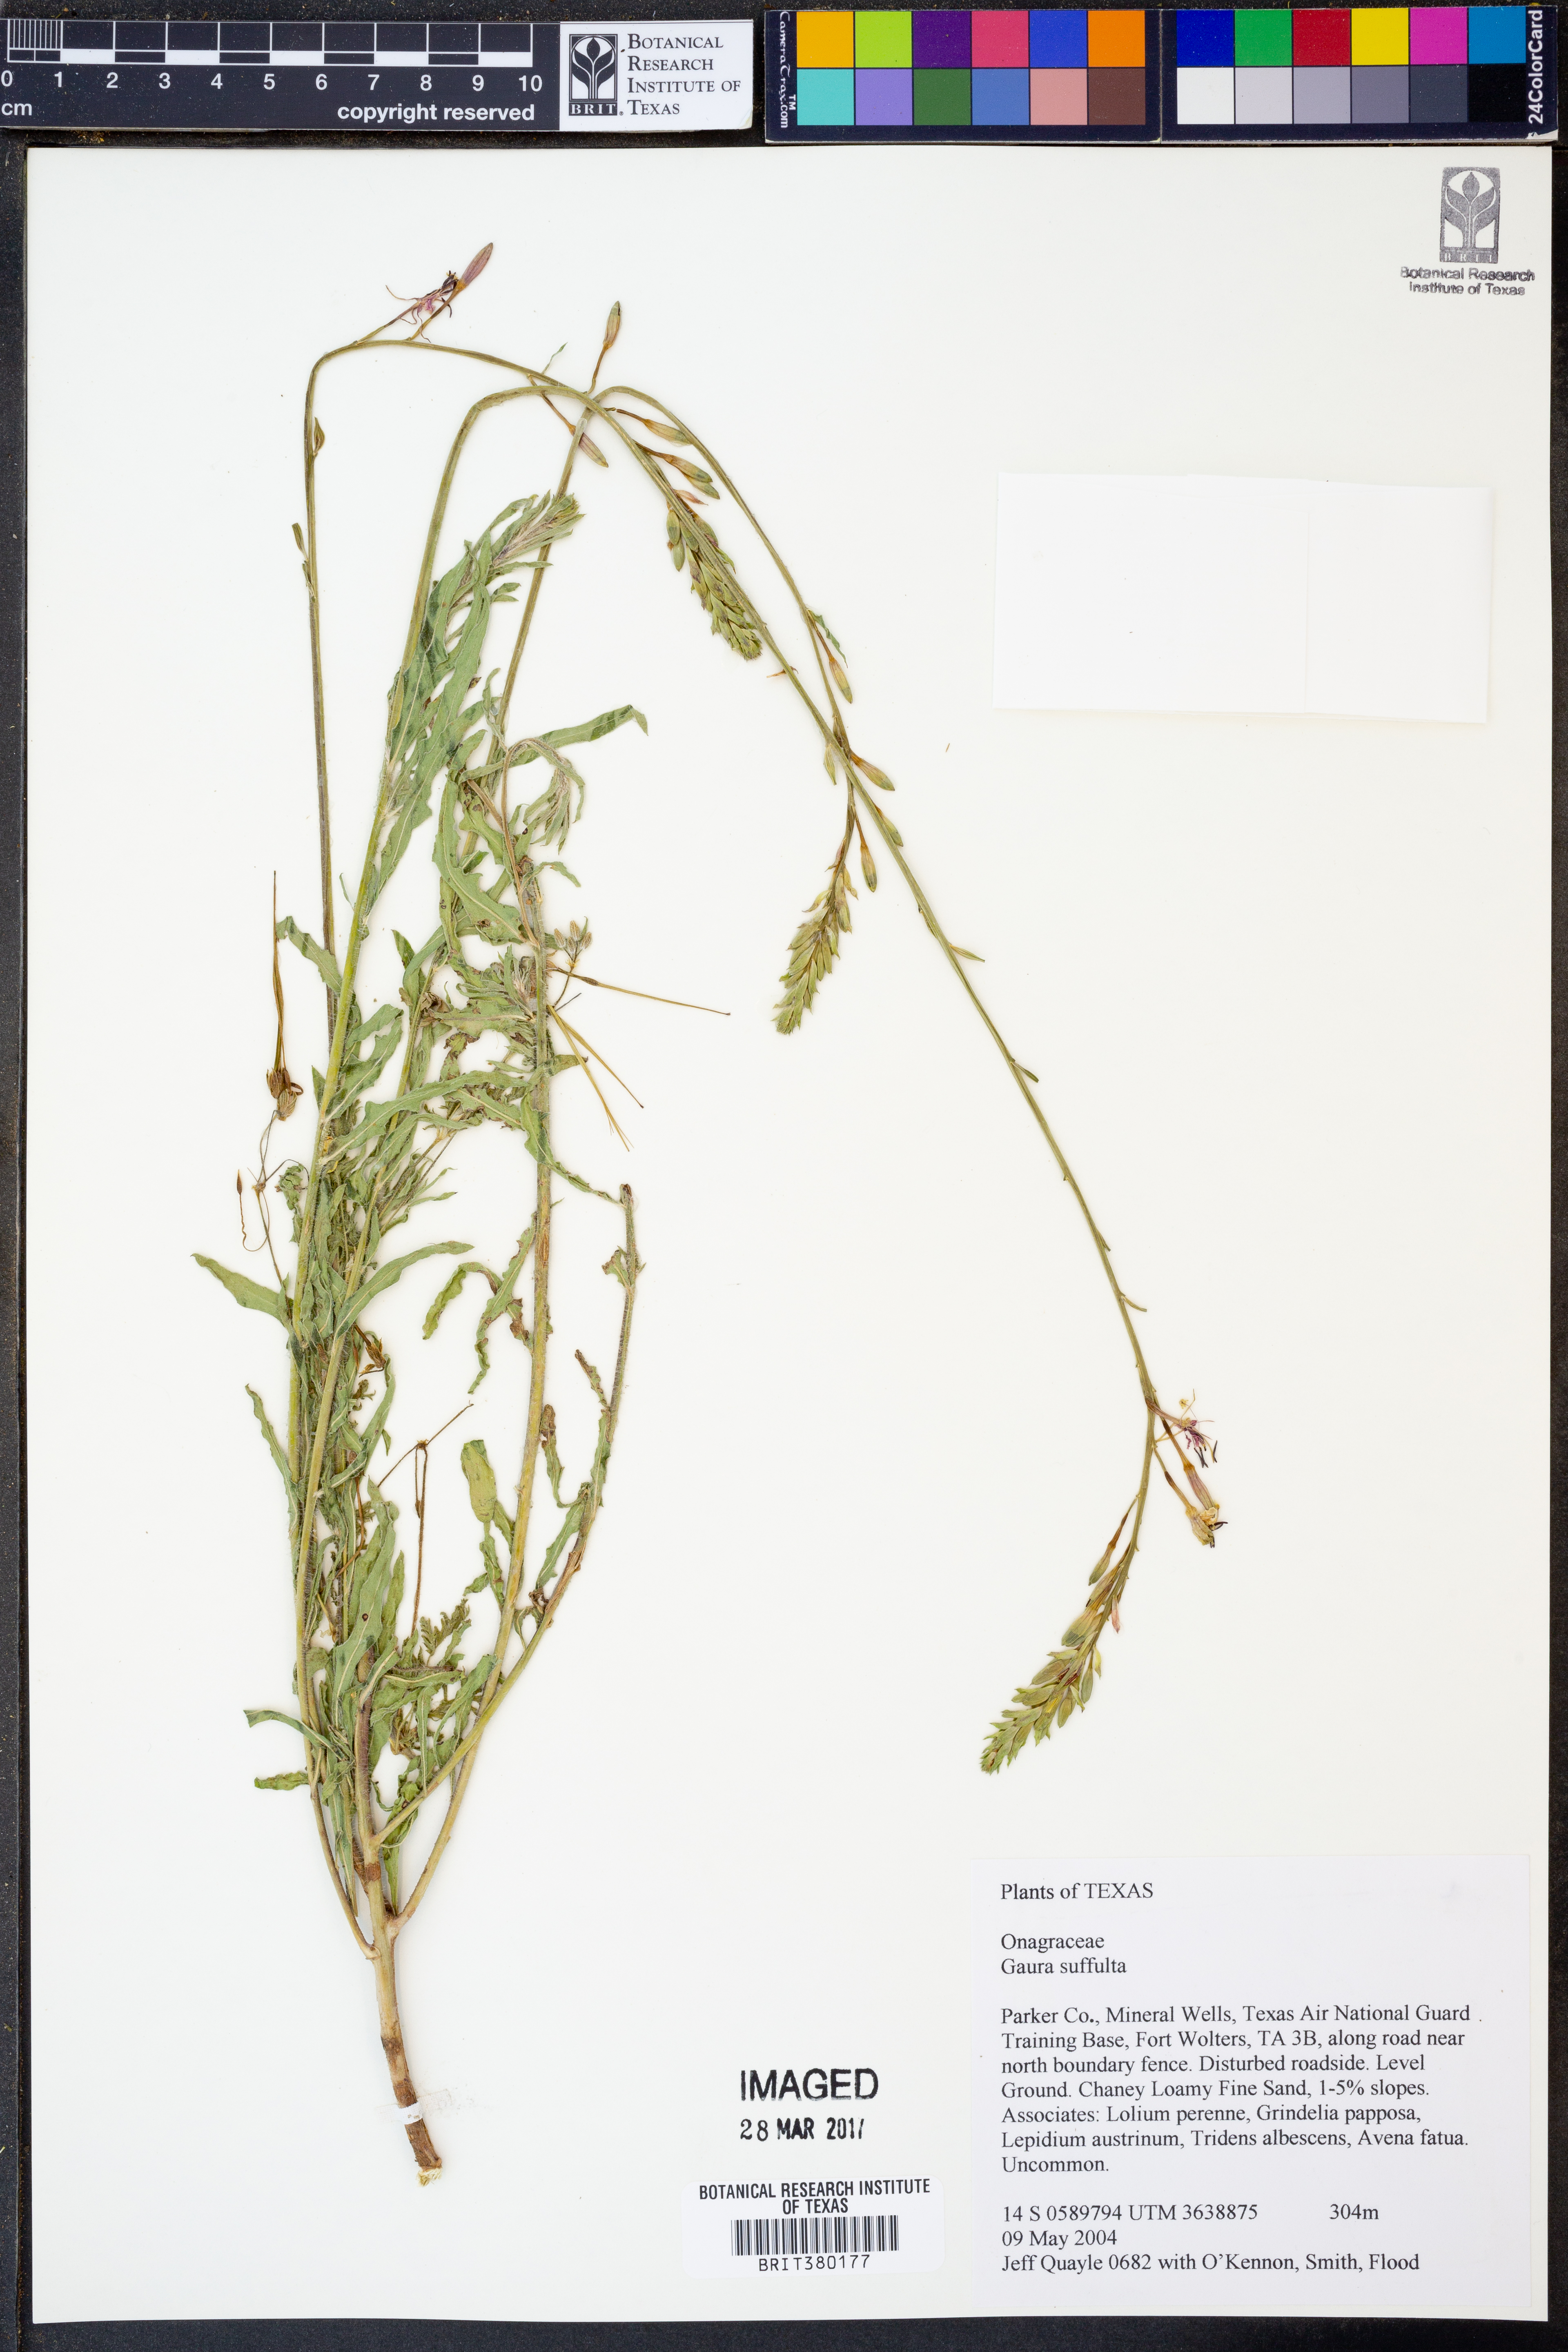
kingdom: Plantae
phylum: Tracheophyta
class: Magnoliopsida
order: Myrtales
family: Onagraceae
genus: Oenothera
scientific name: Oenothera Gaura suffulta
